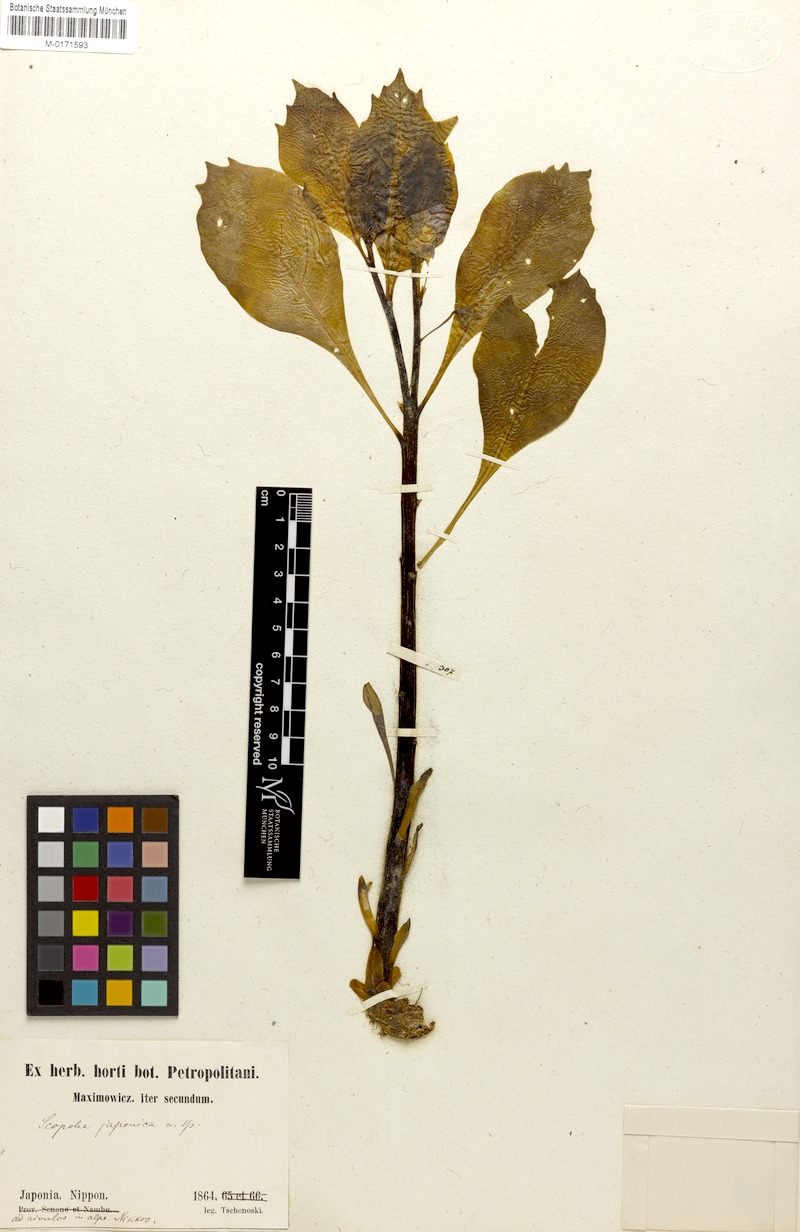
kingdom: Plantae
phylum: Tracheophyta
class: Magnoliopsida
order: Solanales
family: Solanaceae
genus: Scopolia
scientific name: Scopolia japonica
